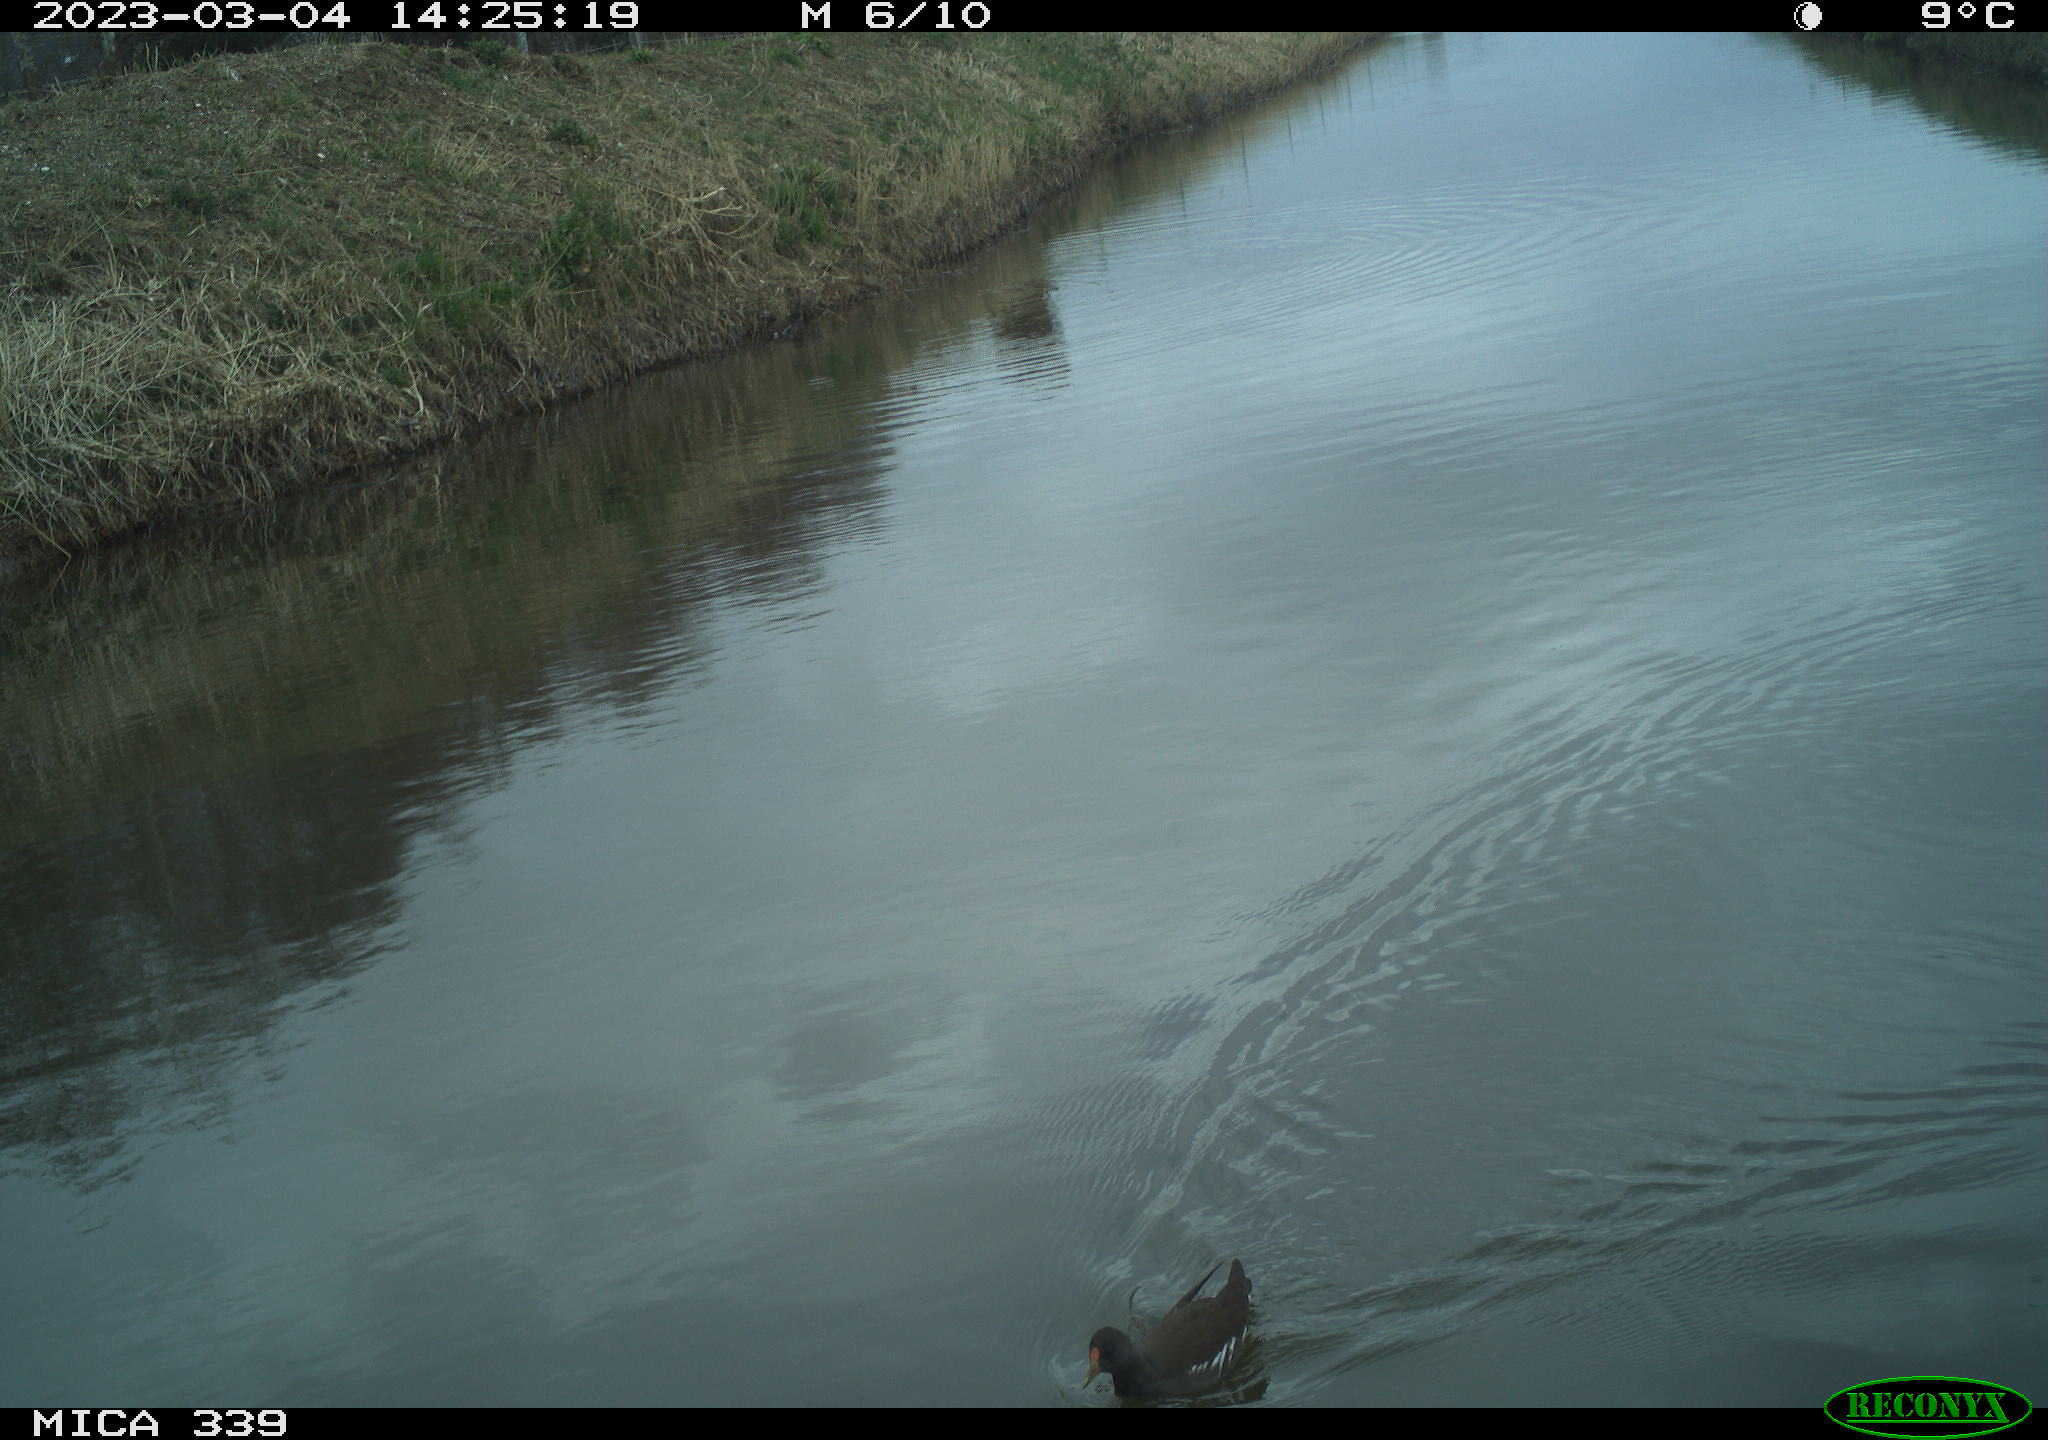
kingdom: Animalia
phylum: Chordata
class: Aves
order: Gruiformes
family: Rallidae
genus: Gallinula
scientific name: Gallinula chloropus
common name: Common moorhen
